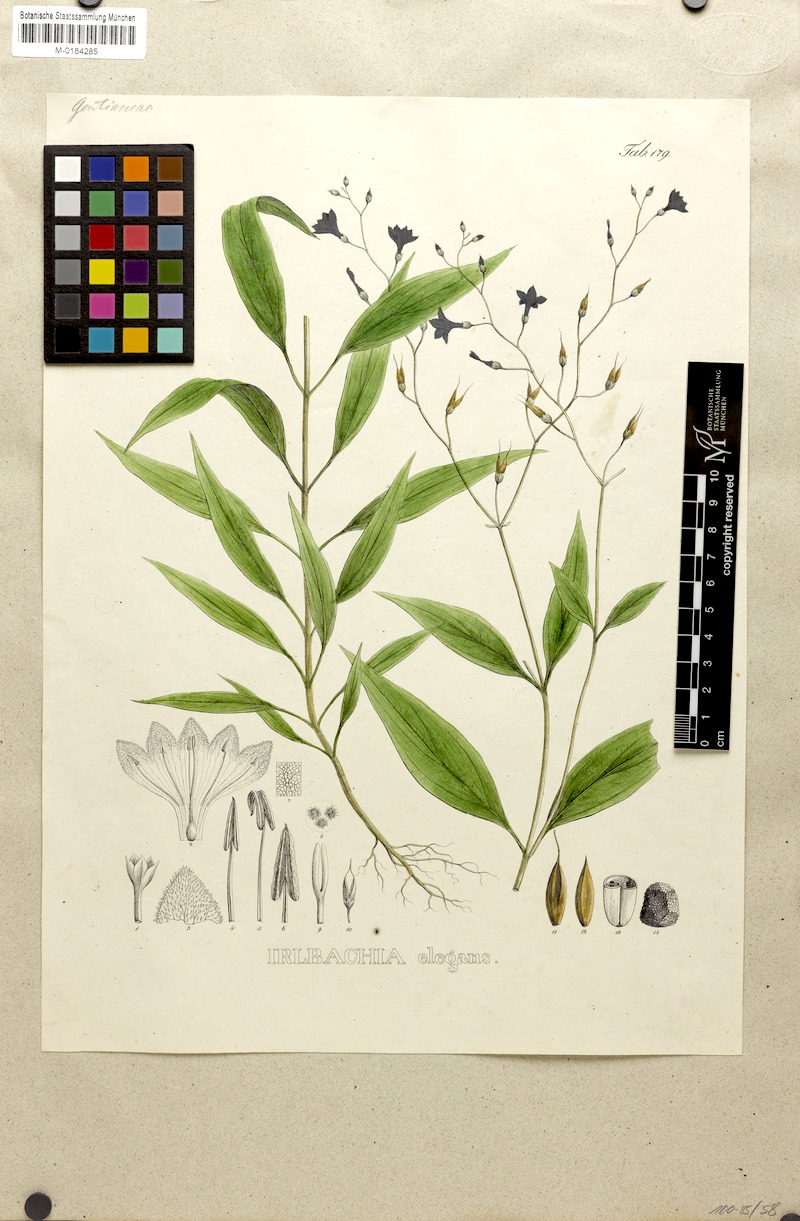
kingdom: Plantae
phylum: Tracheophyta
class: Magnoliopsida
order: Gentianales
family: Gentianaceae
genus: Irlbachia
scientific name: Irlbachia nemorosa
